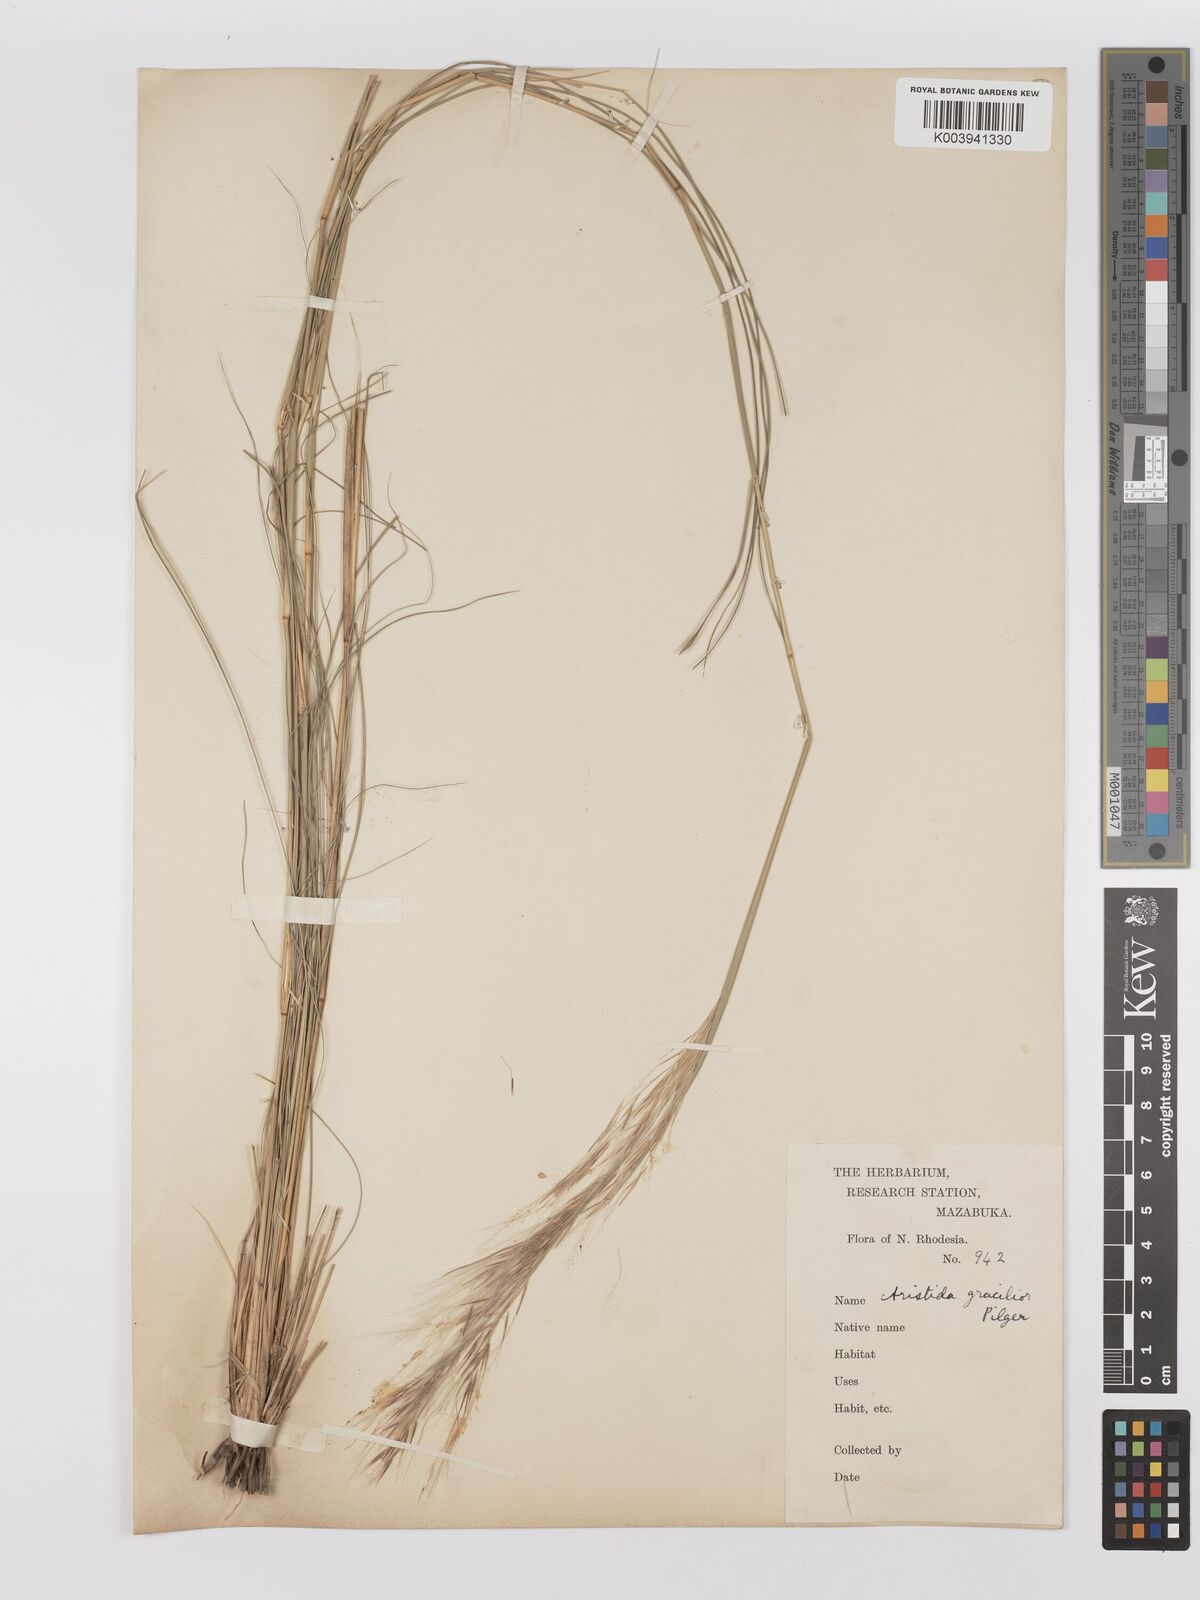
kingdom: Plantae
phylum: Tracheophyta
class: Liliopsida
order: Poales
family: Poaceae
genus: Stipagrostis
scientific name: Stipagrostis hirtigluma
